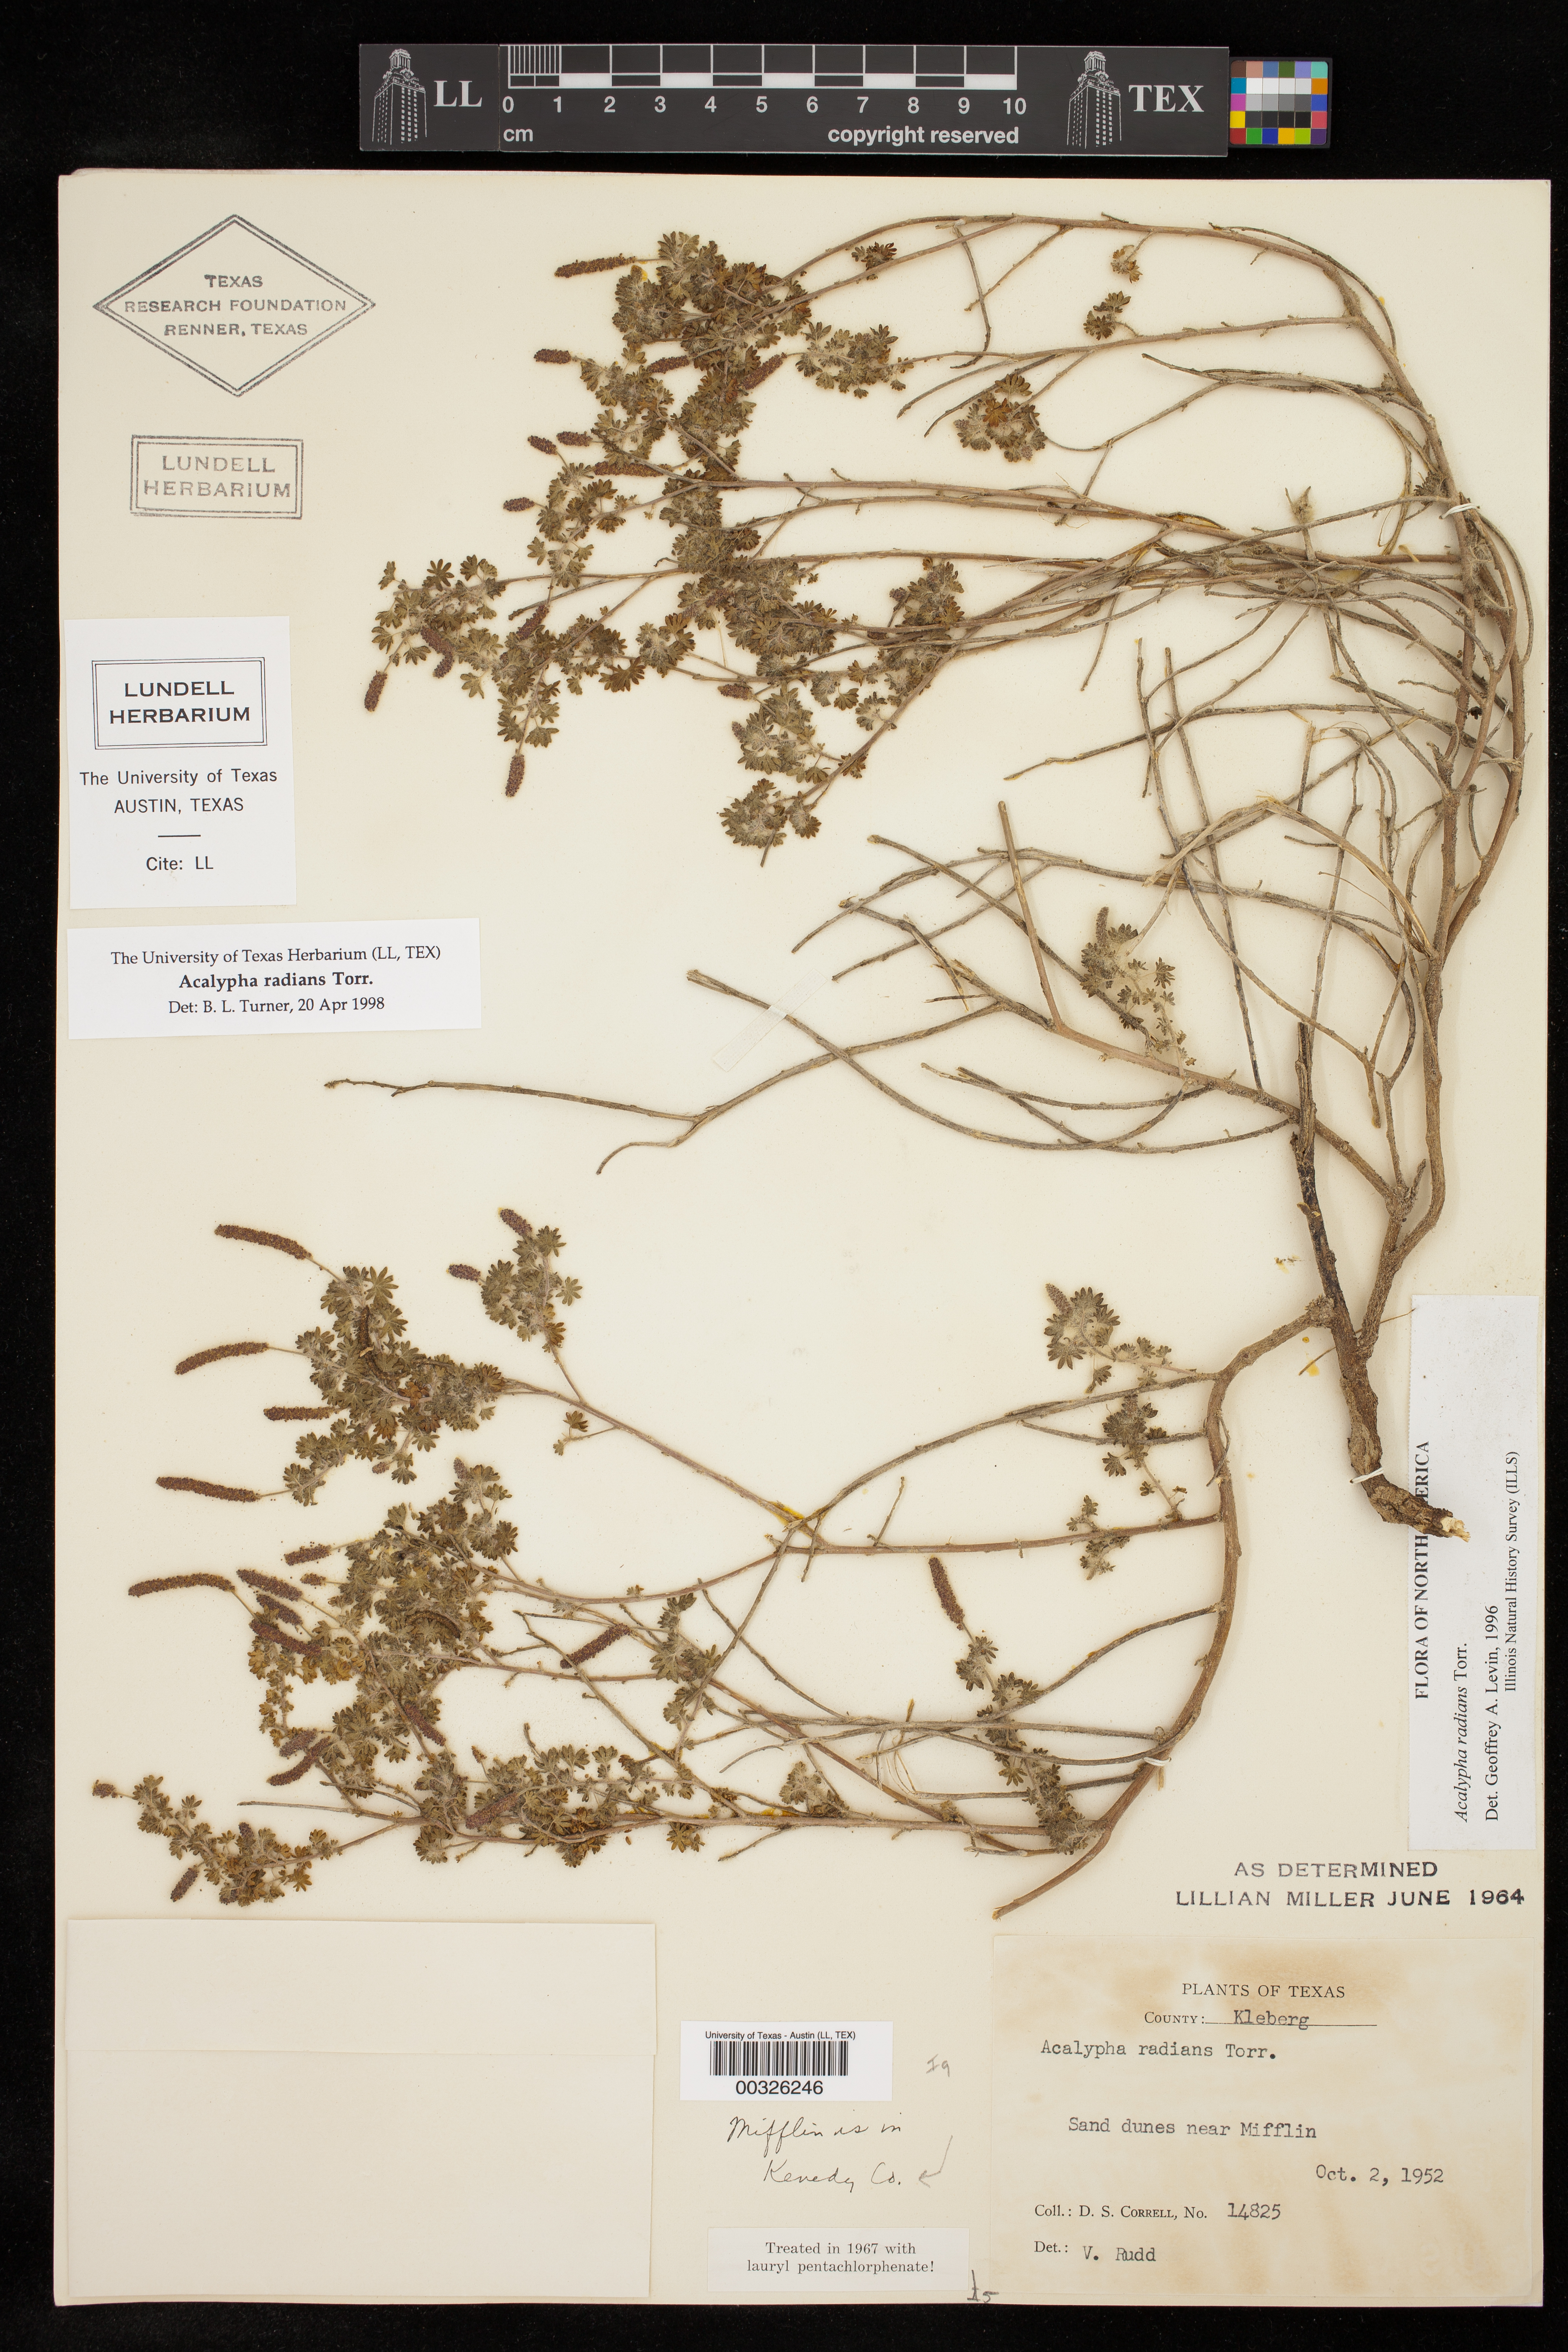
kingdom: Plantae
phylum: Tracheophyta
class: Magnoliopsida
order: Malpighiales
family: Euphorbiaceae
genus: Acalypha
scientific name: Acalypha radians
